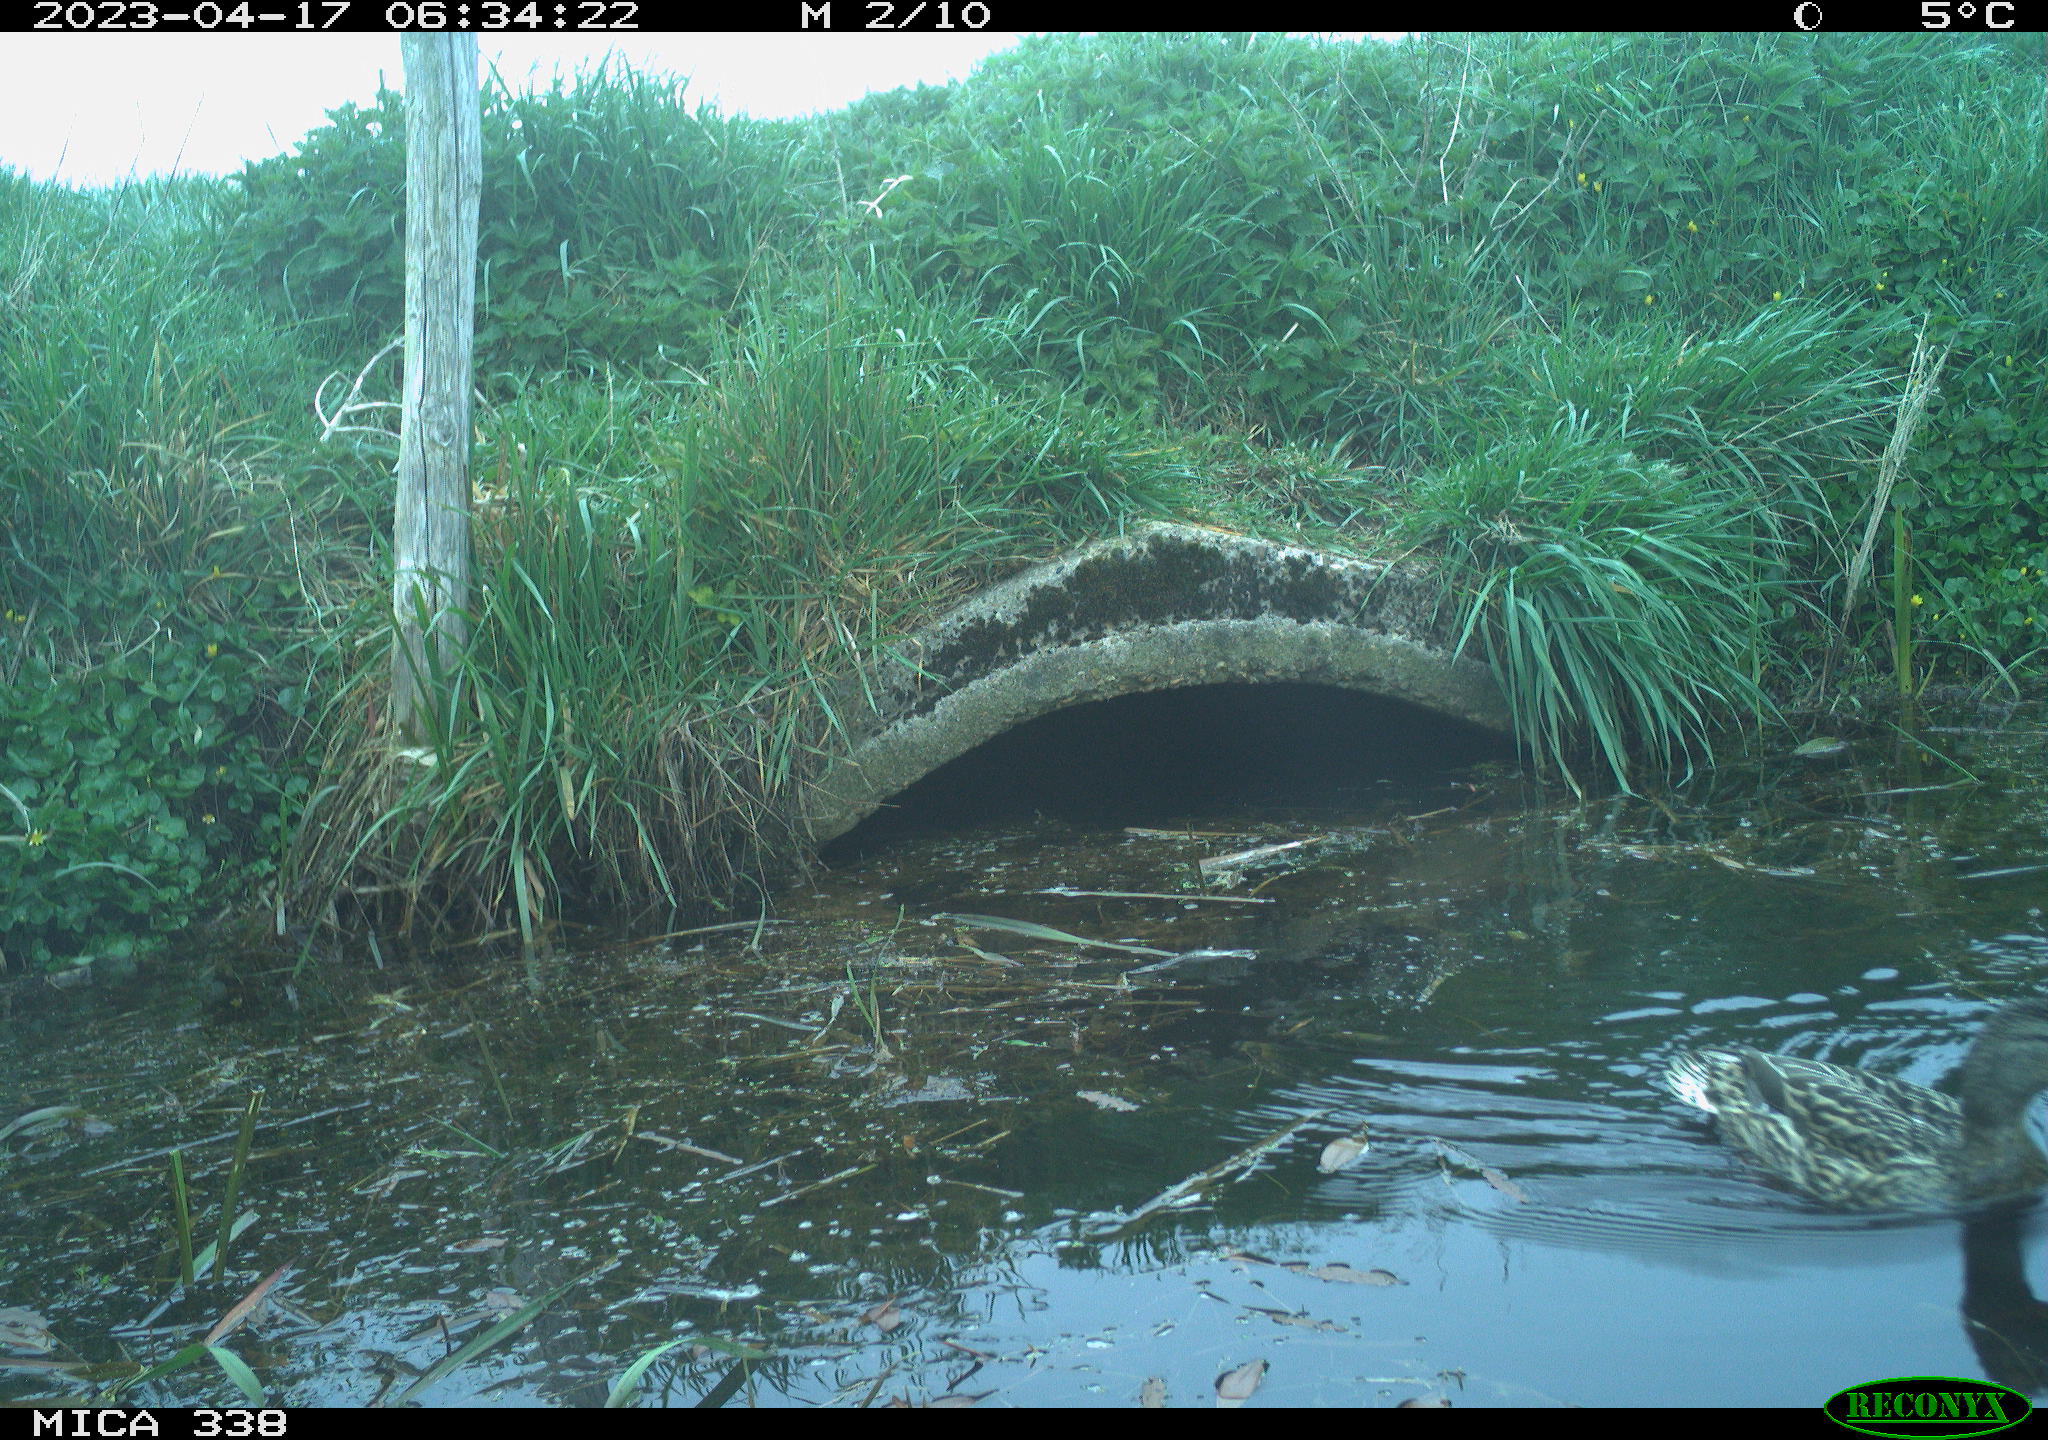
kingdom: Animalia
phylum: Chordata
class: Aves
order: Anseriformes
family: Anatidae
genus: Anas
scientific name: Anas platyrhynchos
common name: Mallard
